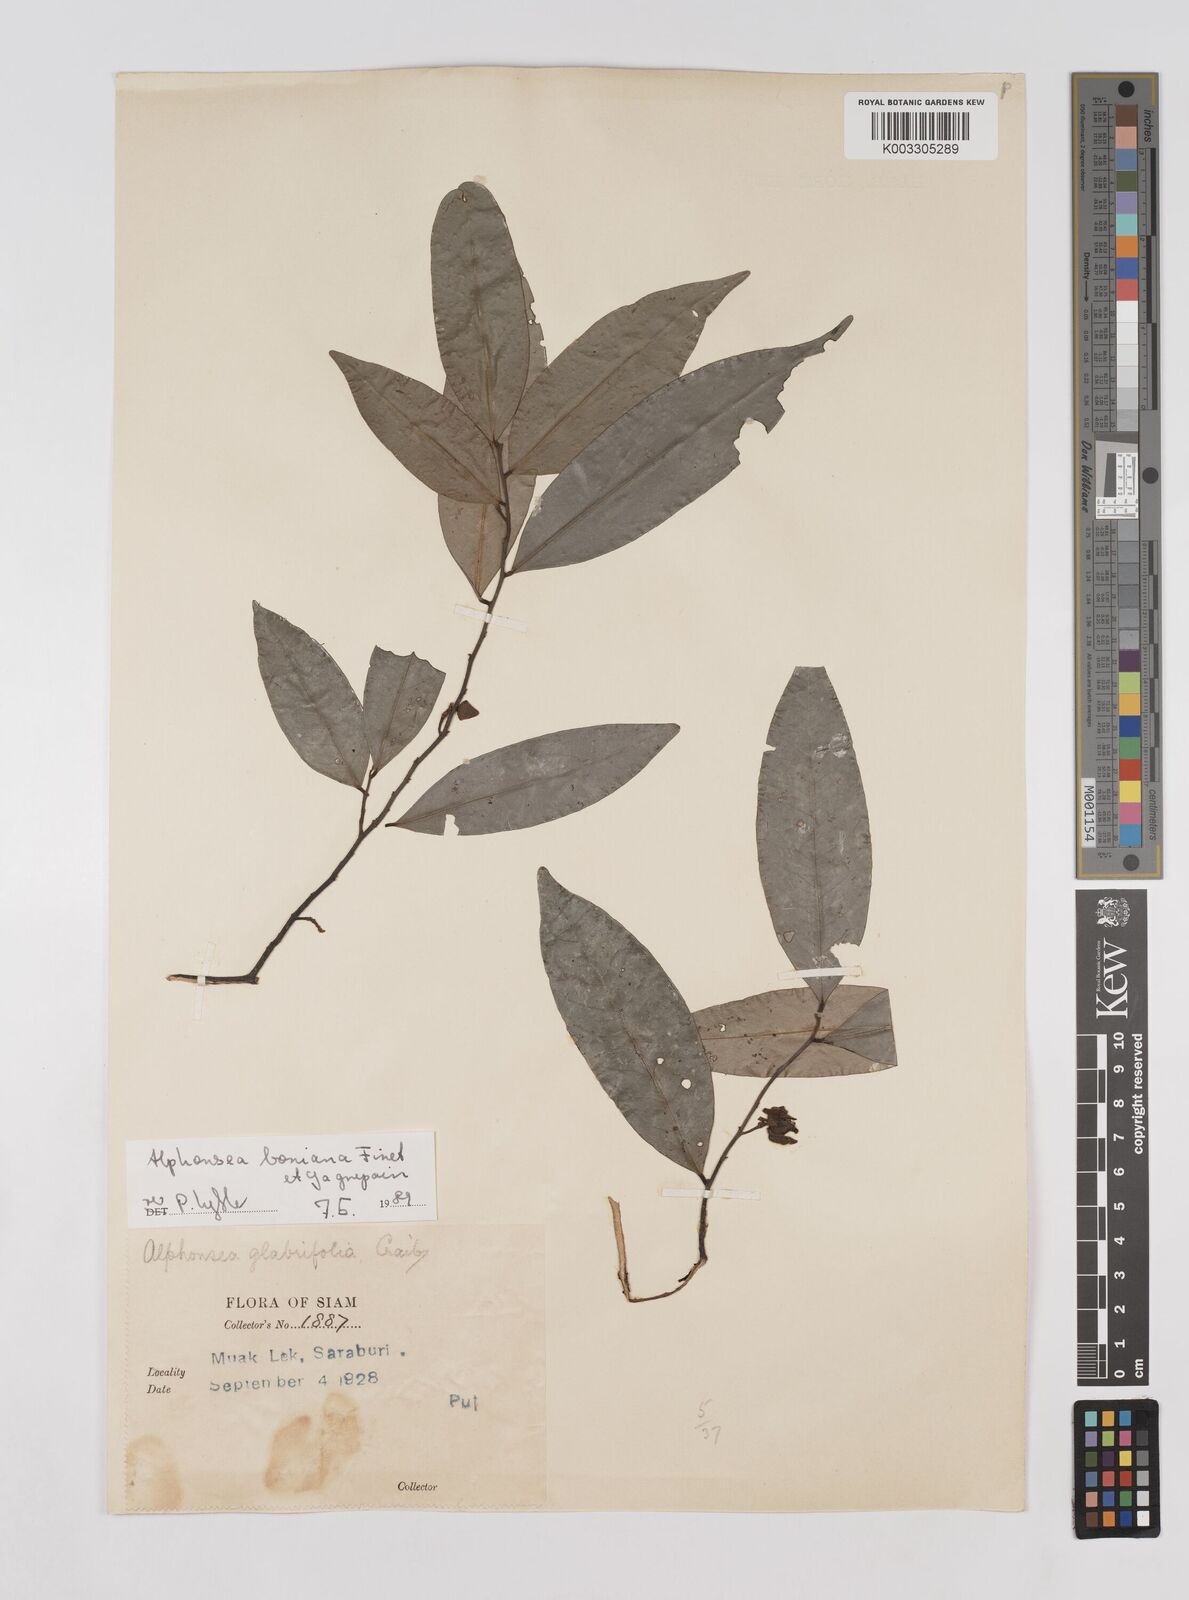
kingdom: Plantae
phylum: Tracheophyta
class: Magnoliopsida
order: Magnoliales
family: Annonaceae
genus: Alphonsea
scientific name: Alphonsea boniana
